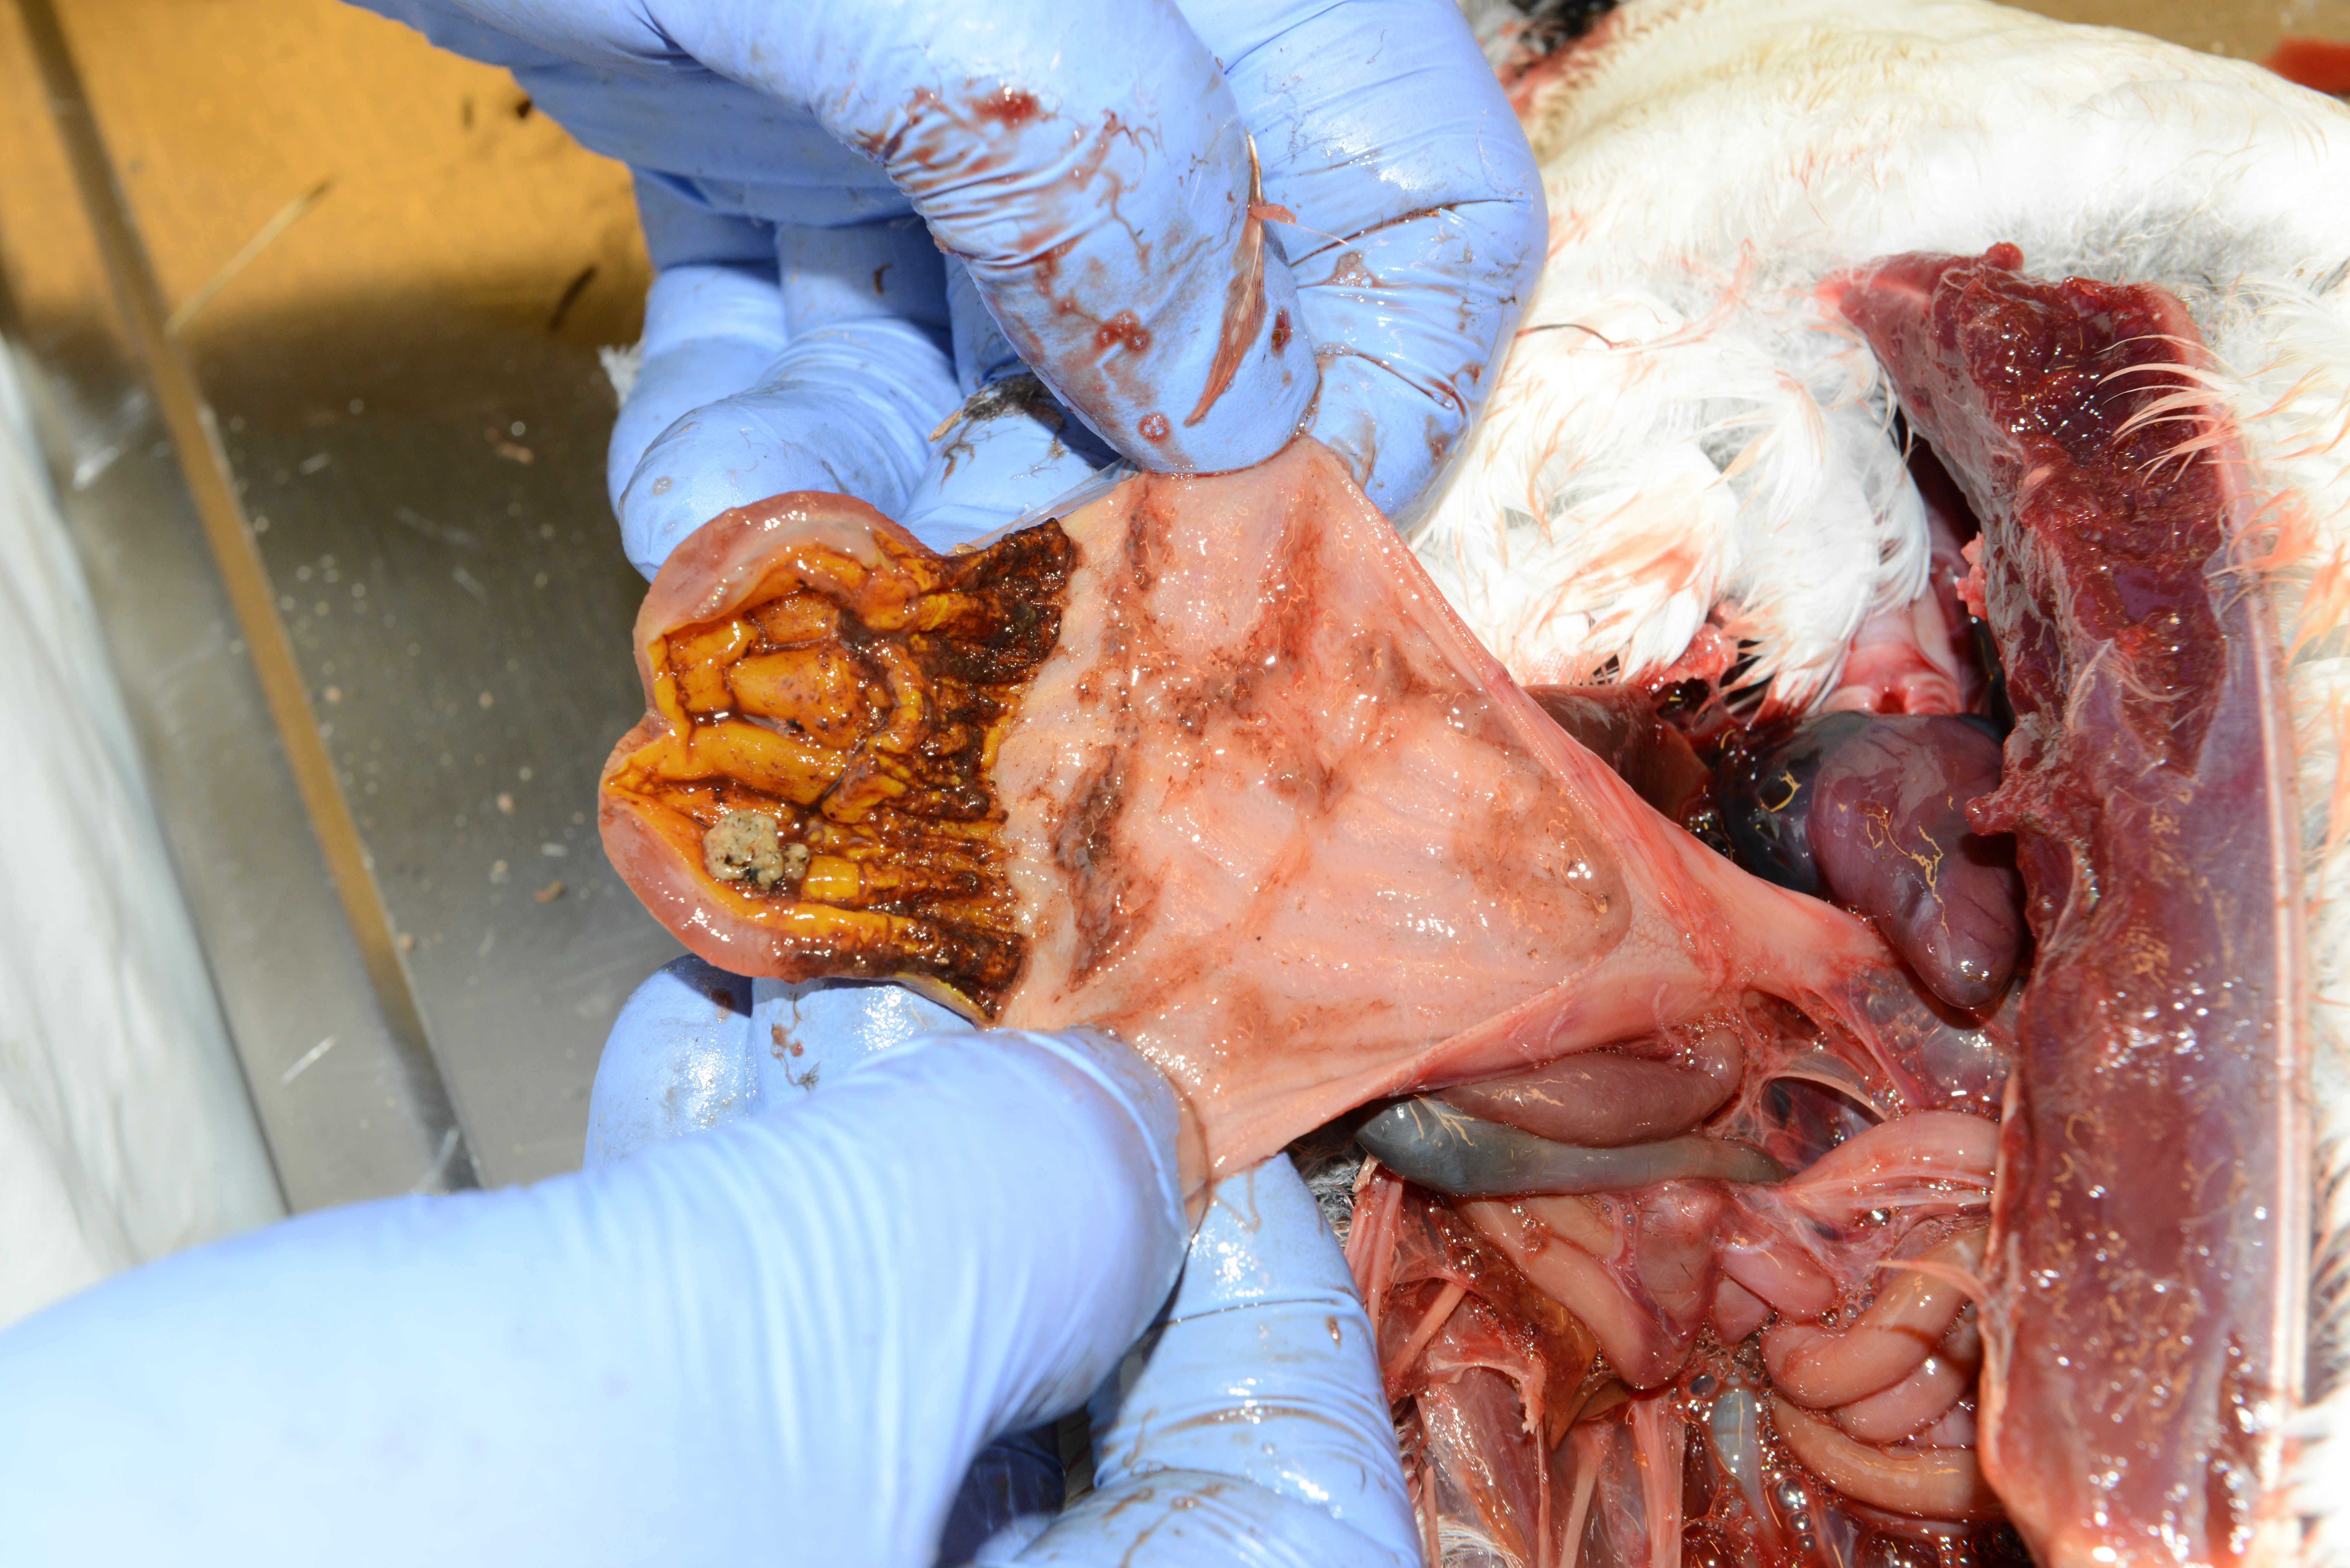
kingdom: Animalia
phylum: Chordata
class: Aves
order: Charadriiformes
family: Alcidae
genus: Alca
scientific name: Alca torda
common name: Razorbill
